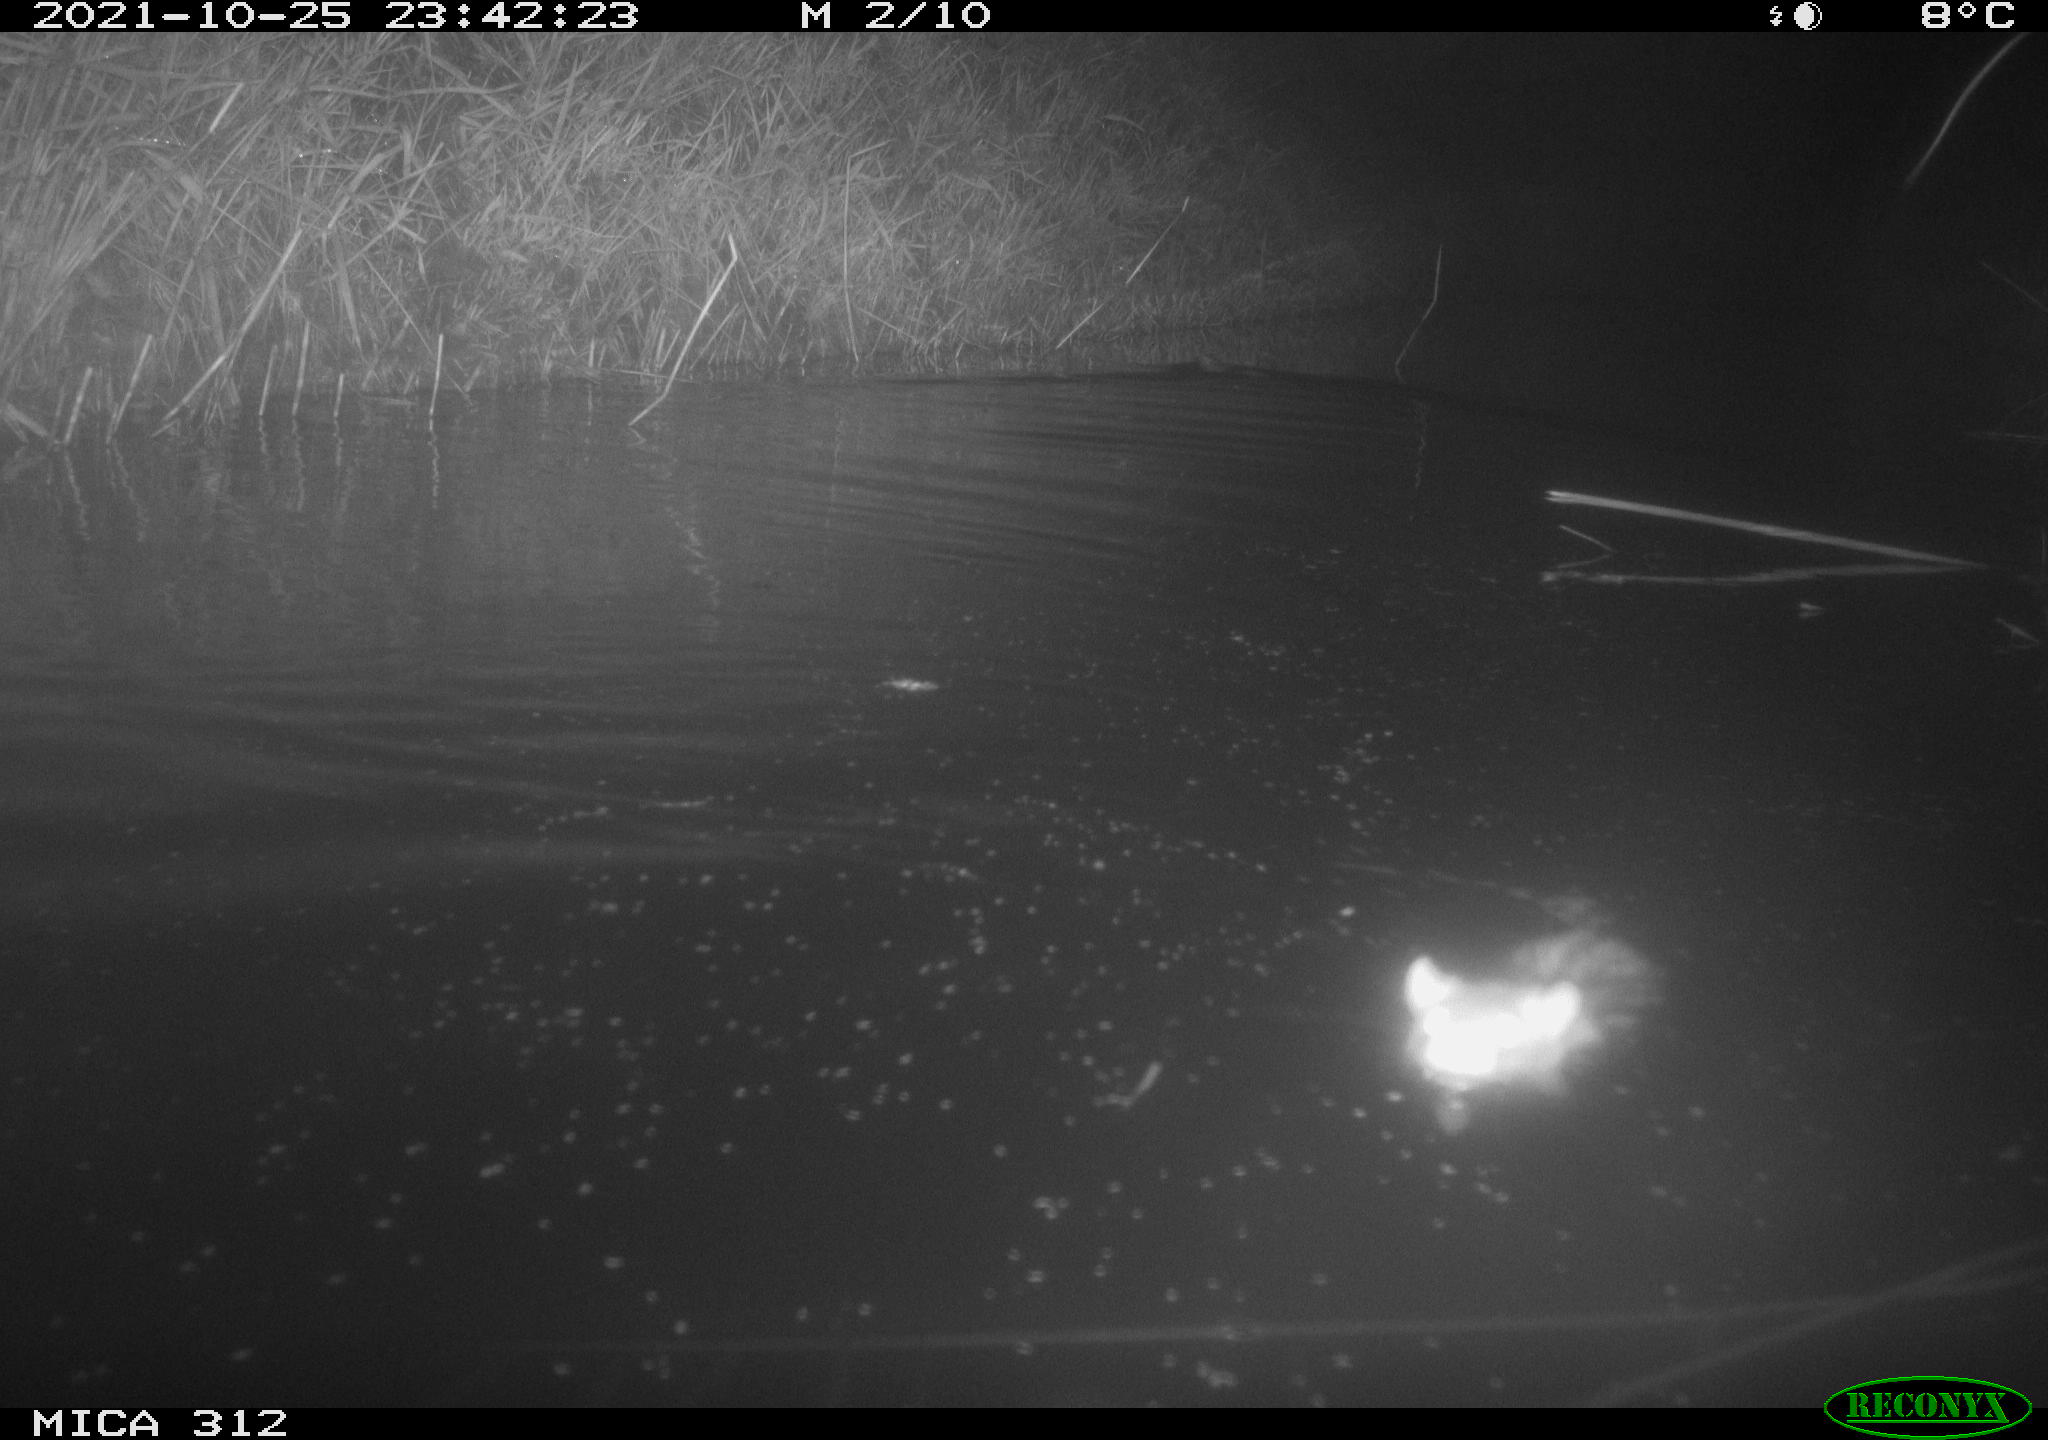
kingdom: Animalia
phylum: Chordata
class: Mammalia
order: Rodentia
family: Muridae
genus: Rattus
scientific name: Rattus norvegicus
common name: Brown rat
